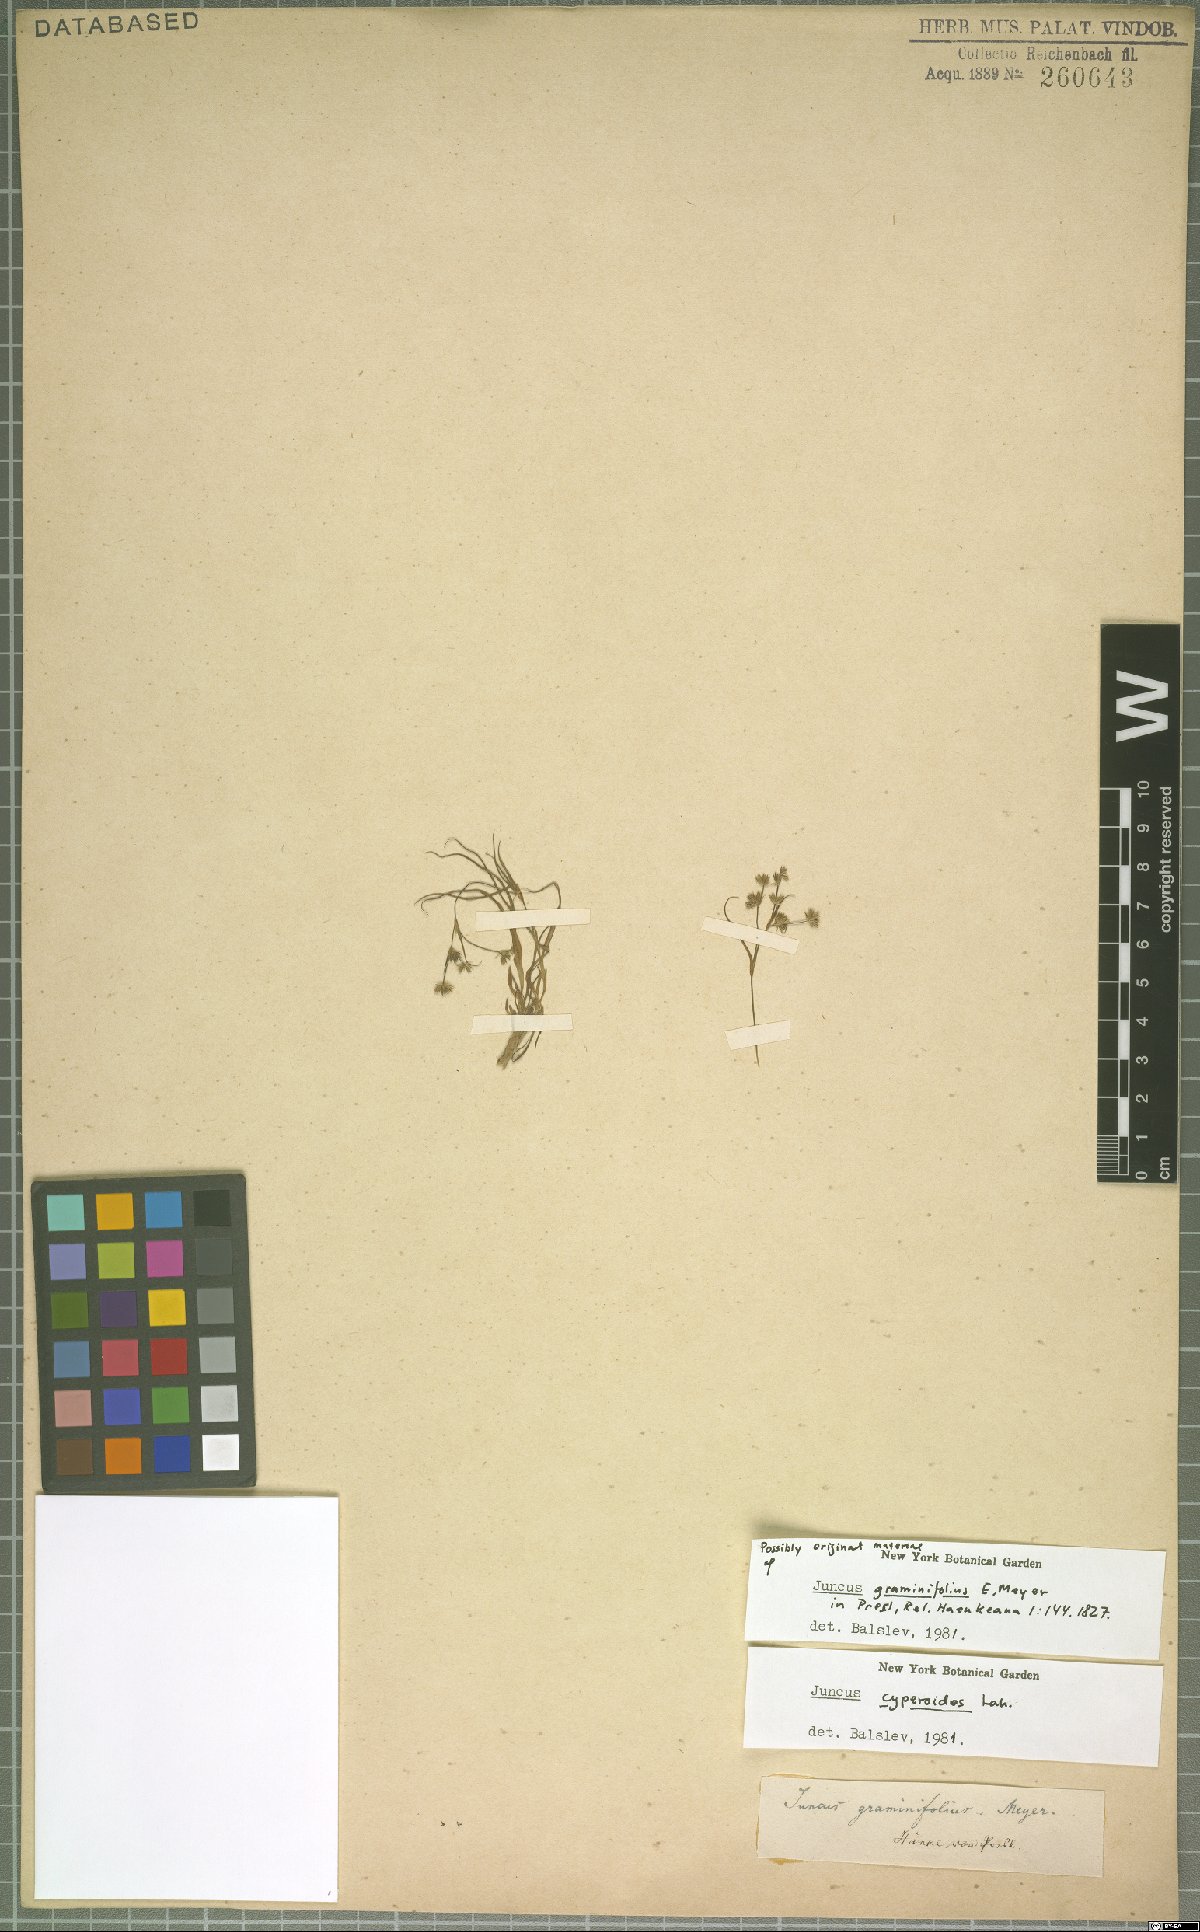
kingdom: Plantae
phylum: Tracheophyta
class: Liliopsida
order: Poales
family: Juncaceae
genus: Juncus
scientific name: Juncus cyperoides
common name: Forbestown rush
